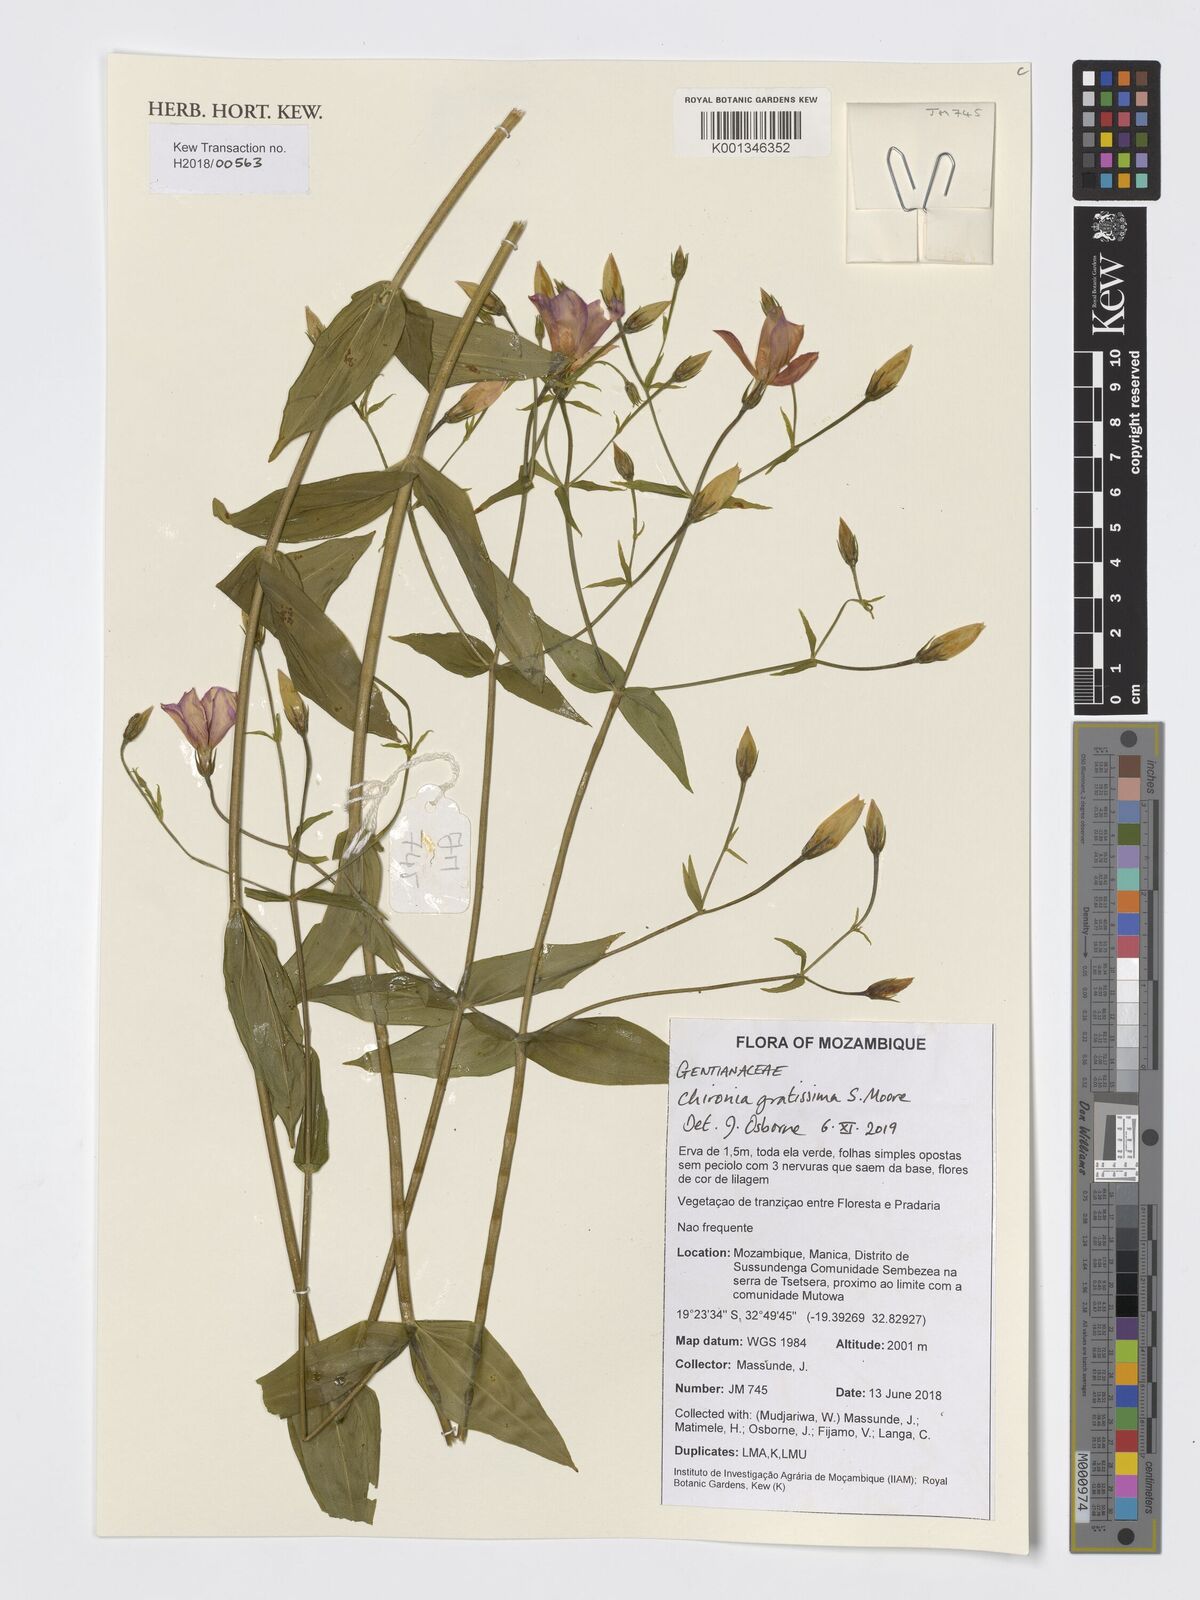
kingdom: Plantae
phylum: Tracheophyta
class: Magnoliopsida
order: Gentianales
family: Gentianaceae
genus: Chironia
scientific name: Chironia gratissima
